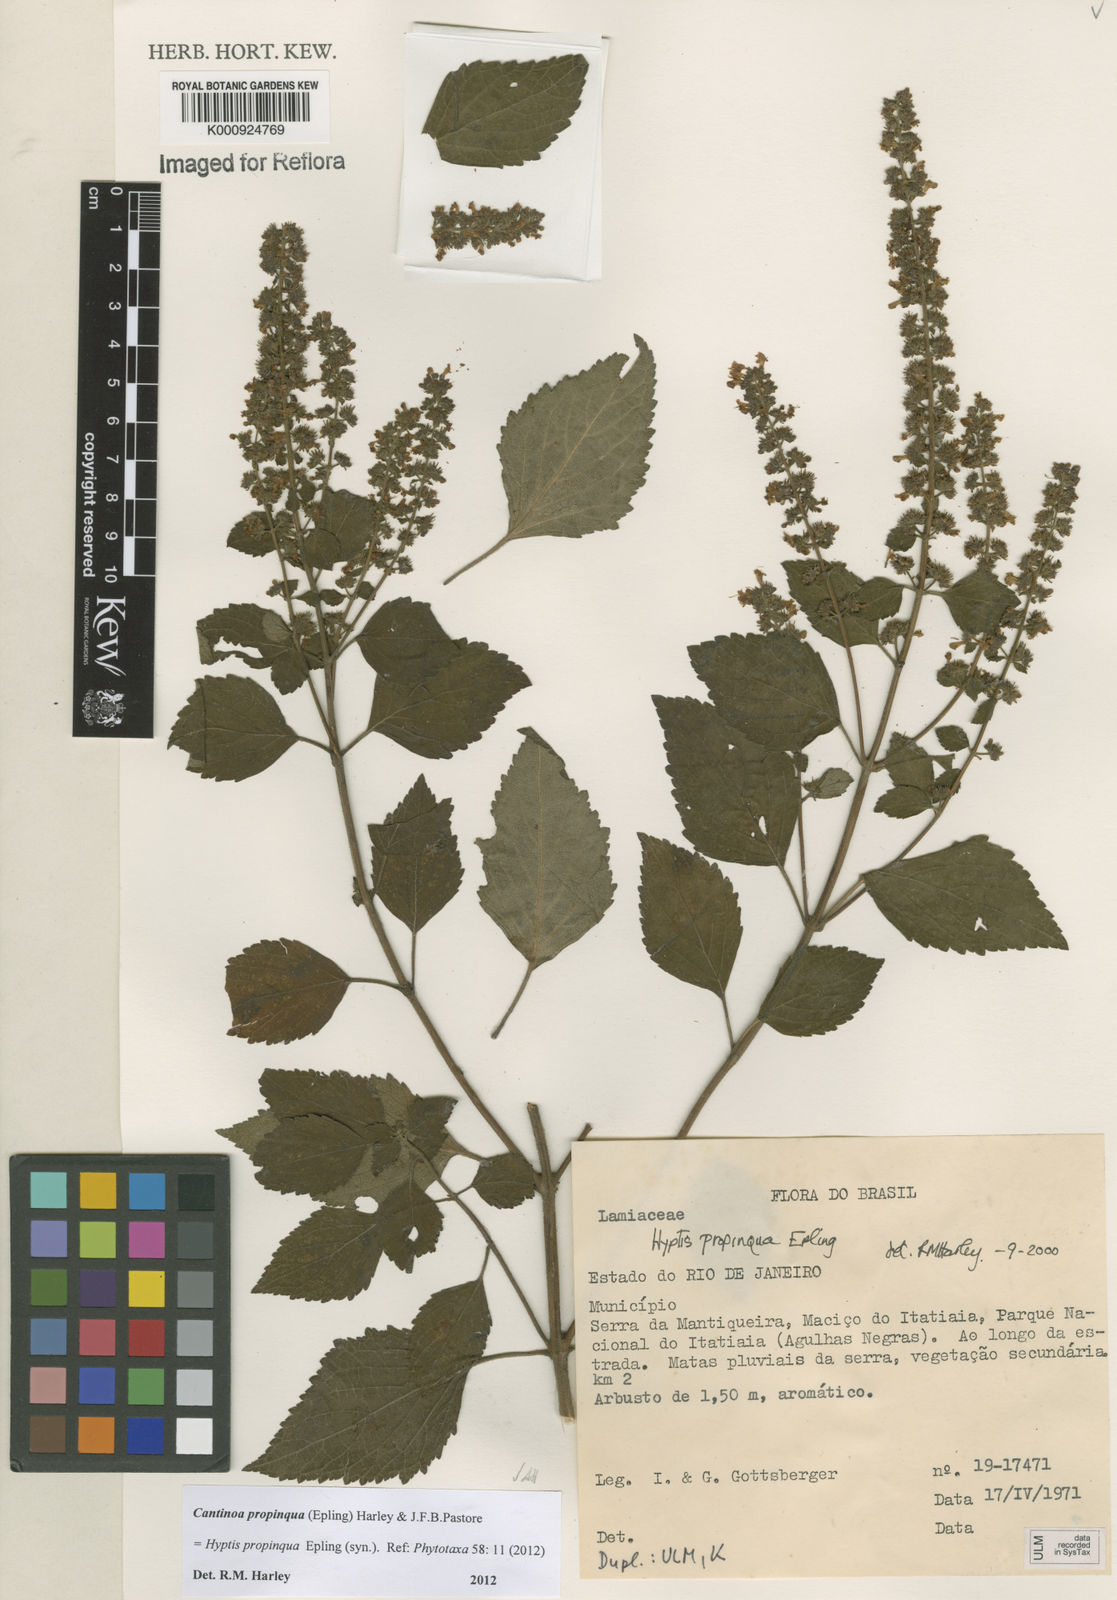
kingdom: Plantae
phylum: Tracheophyta
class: Magnoliopsida
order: Lamiales
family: Lamiaceae
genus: Cantinoa
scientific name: Cantinoa propinqua
